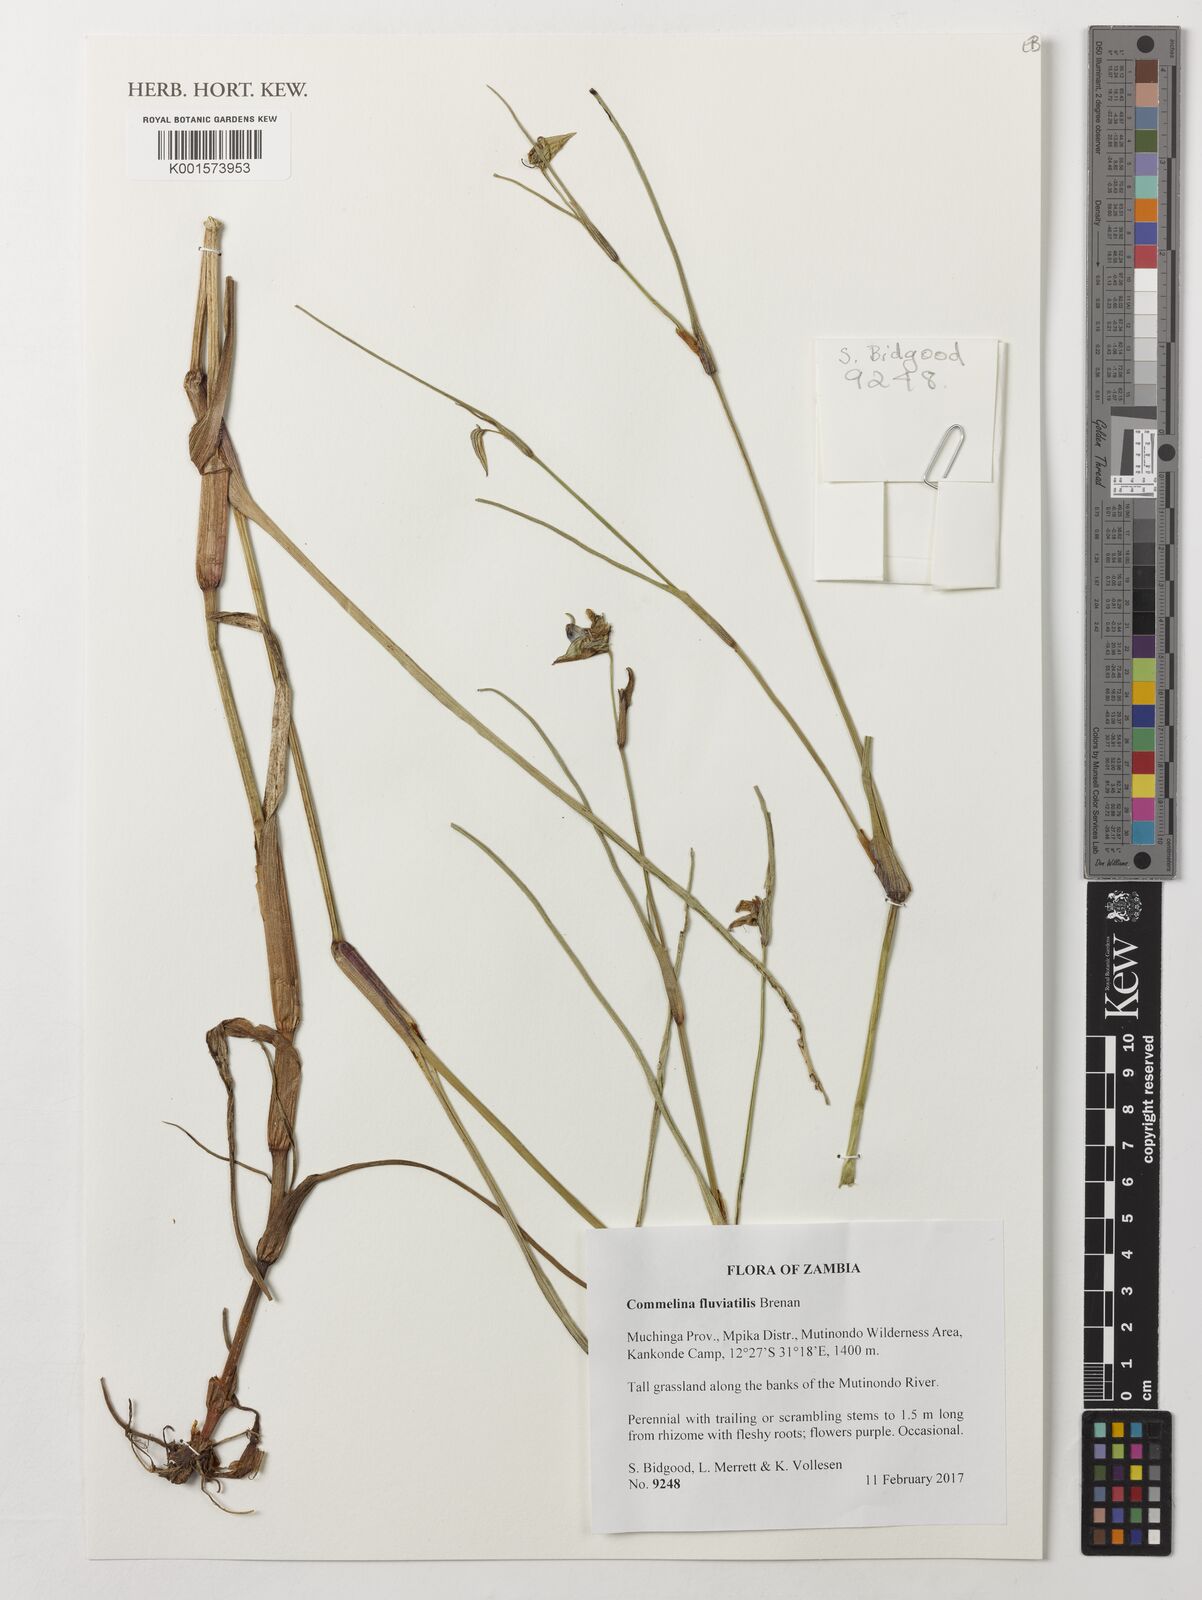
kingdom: Plantae
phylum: Tracheophyta
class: Liliopsida
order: Commelinales
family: Commelinaceae
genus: Commelina
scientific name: Commelina fluviatilis
